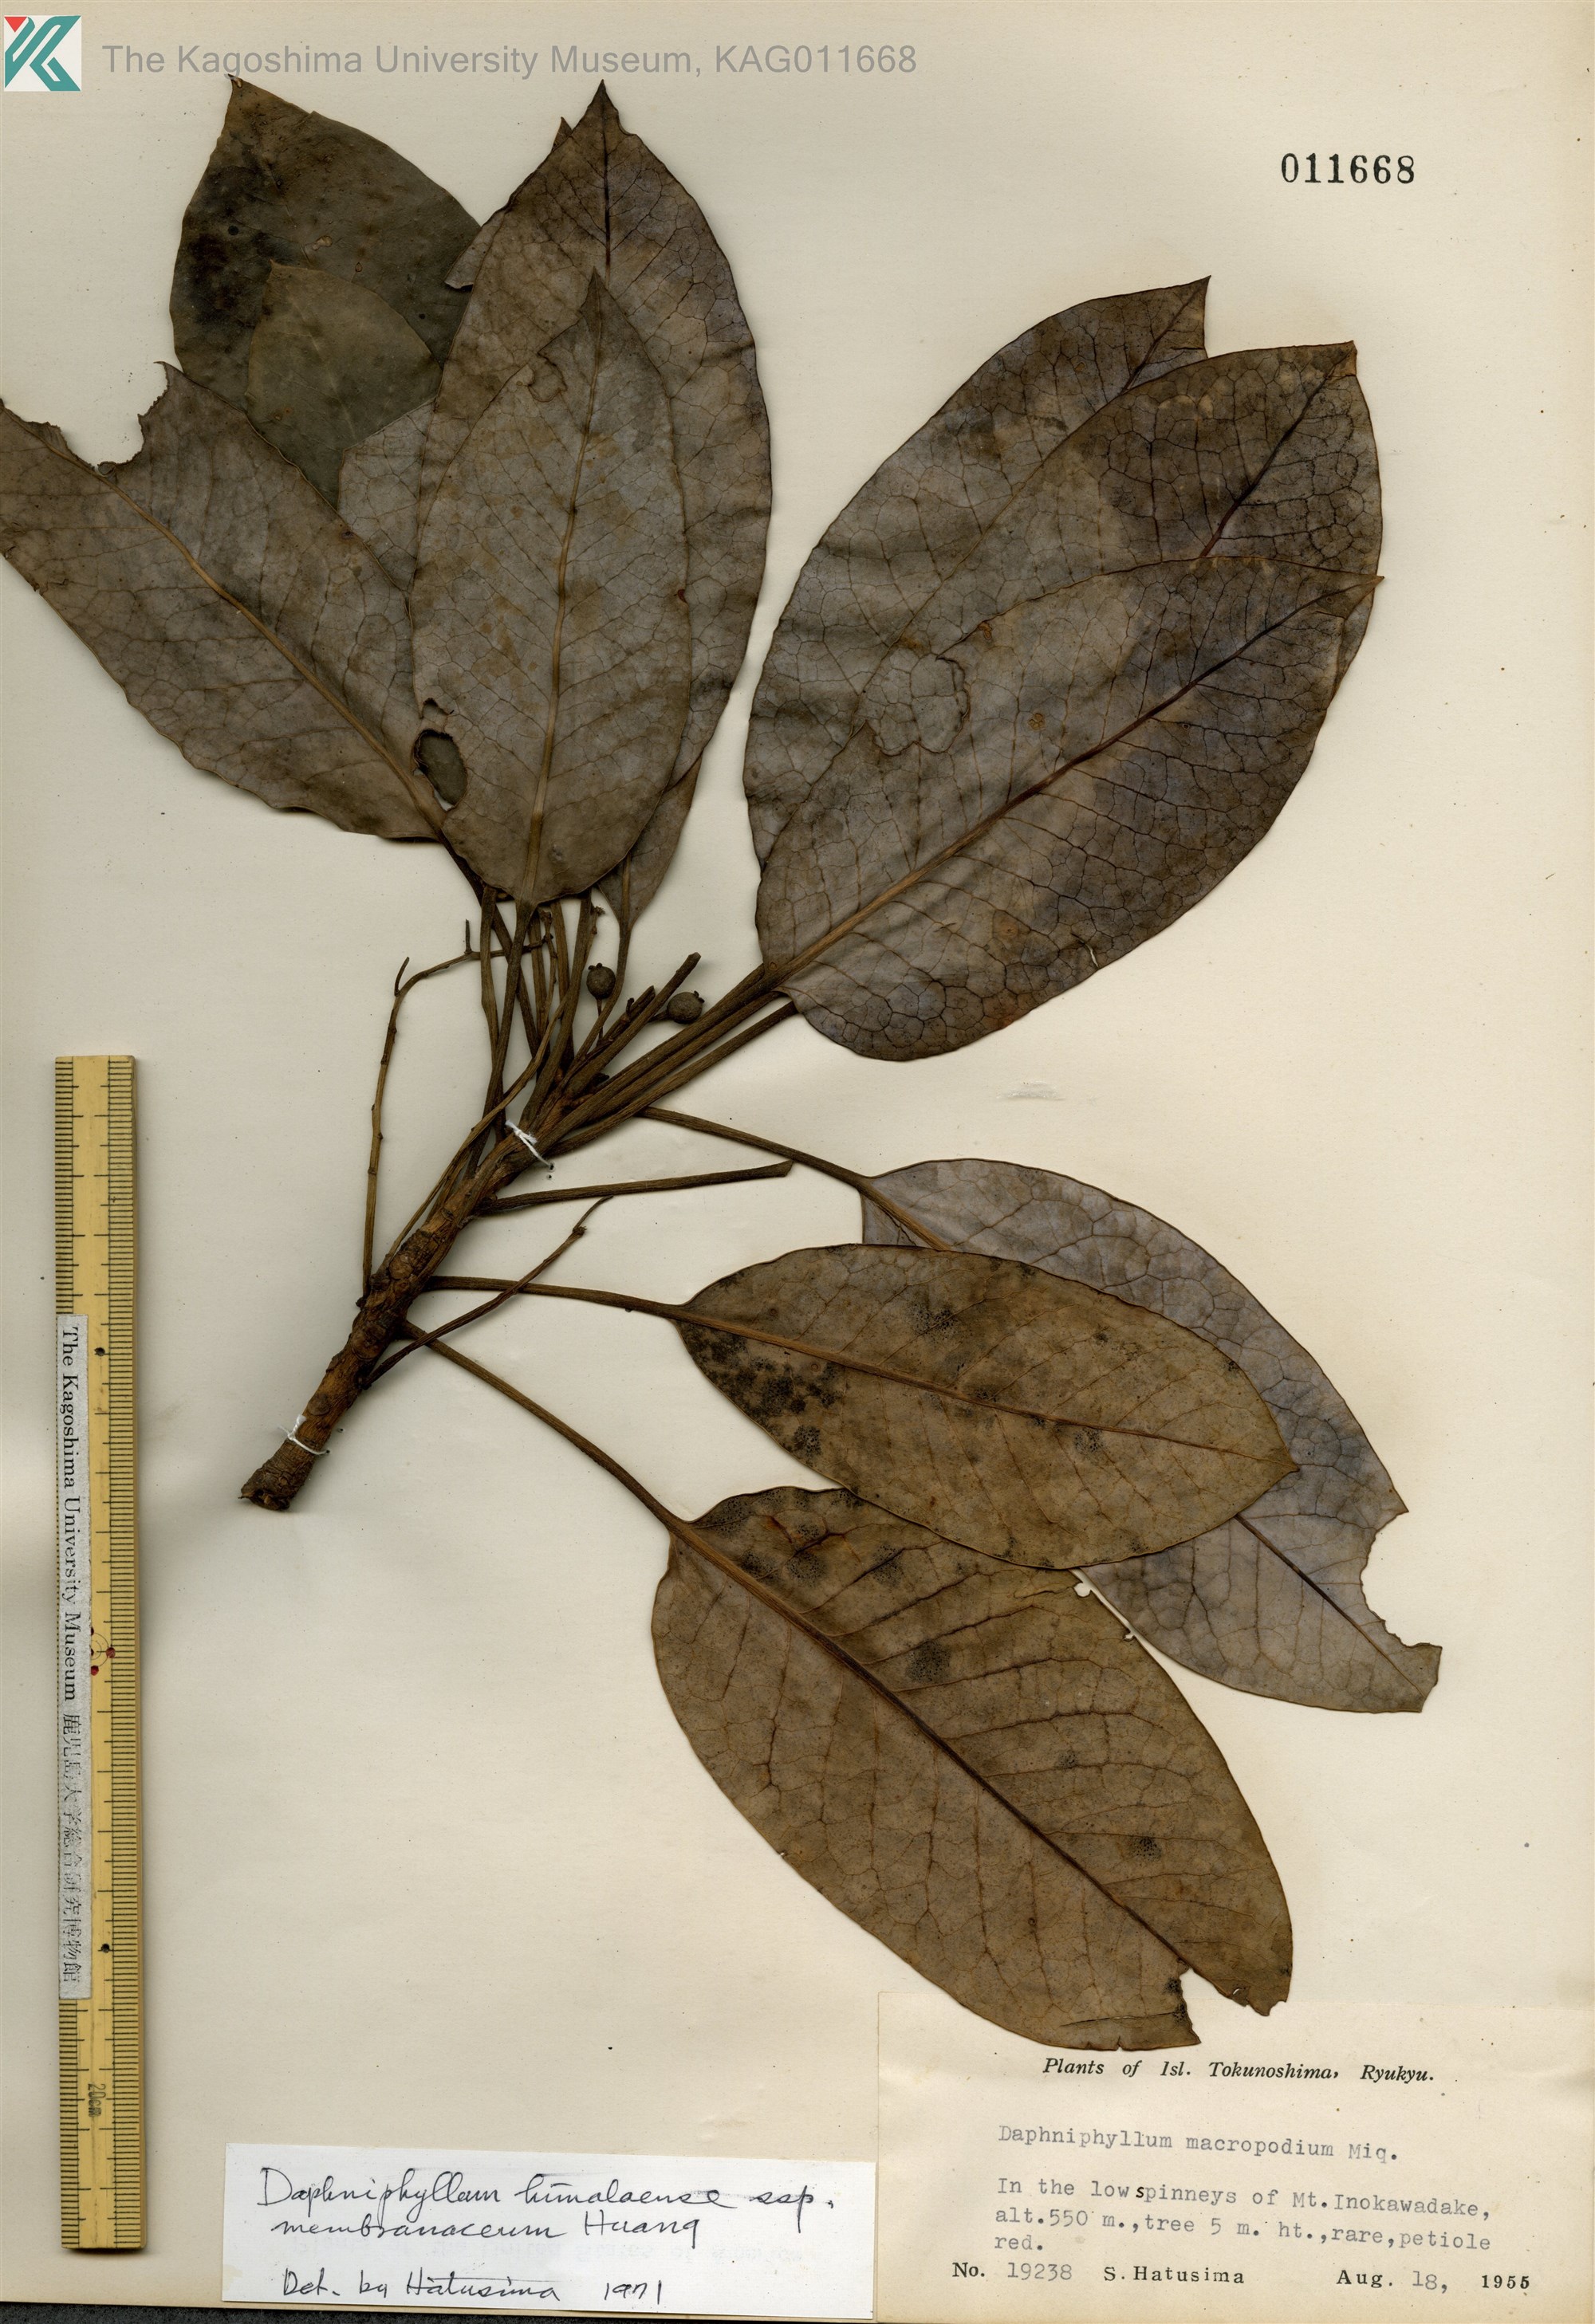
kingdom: Plantae
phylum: Tracheophyta
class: Magnoliopsida
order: Saxifragales
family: Daphniphyllaceae
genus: Daphniphyllum
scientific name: Daphniphyllum macropodum
